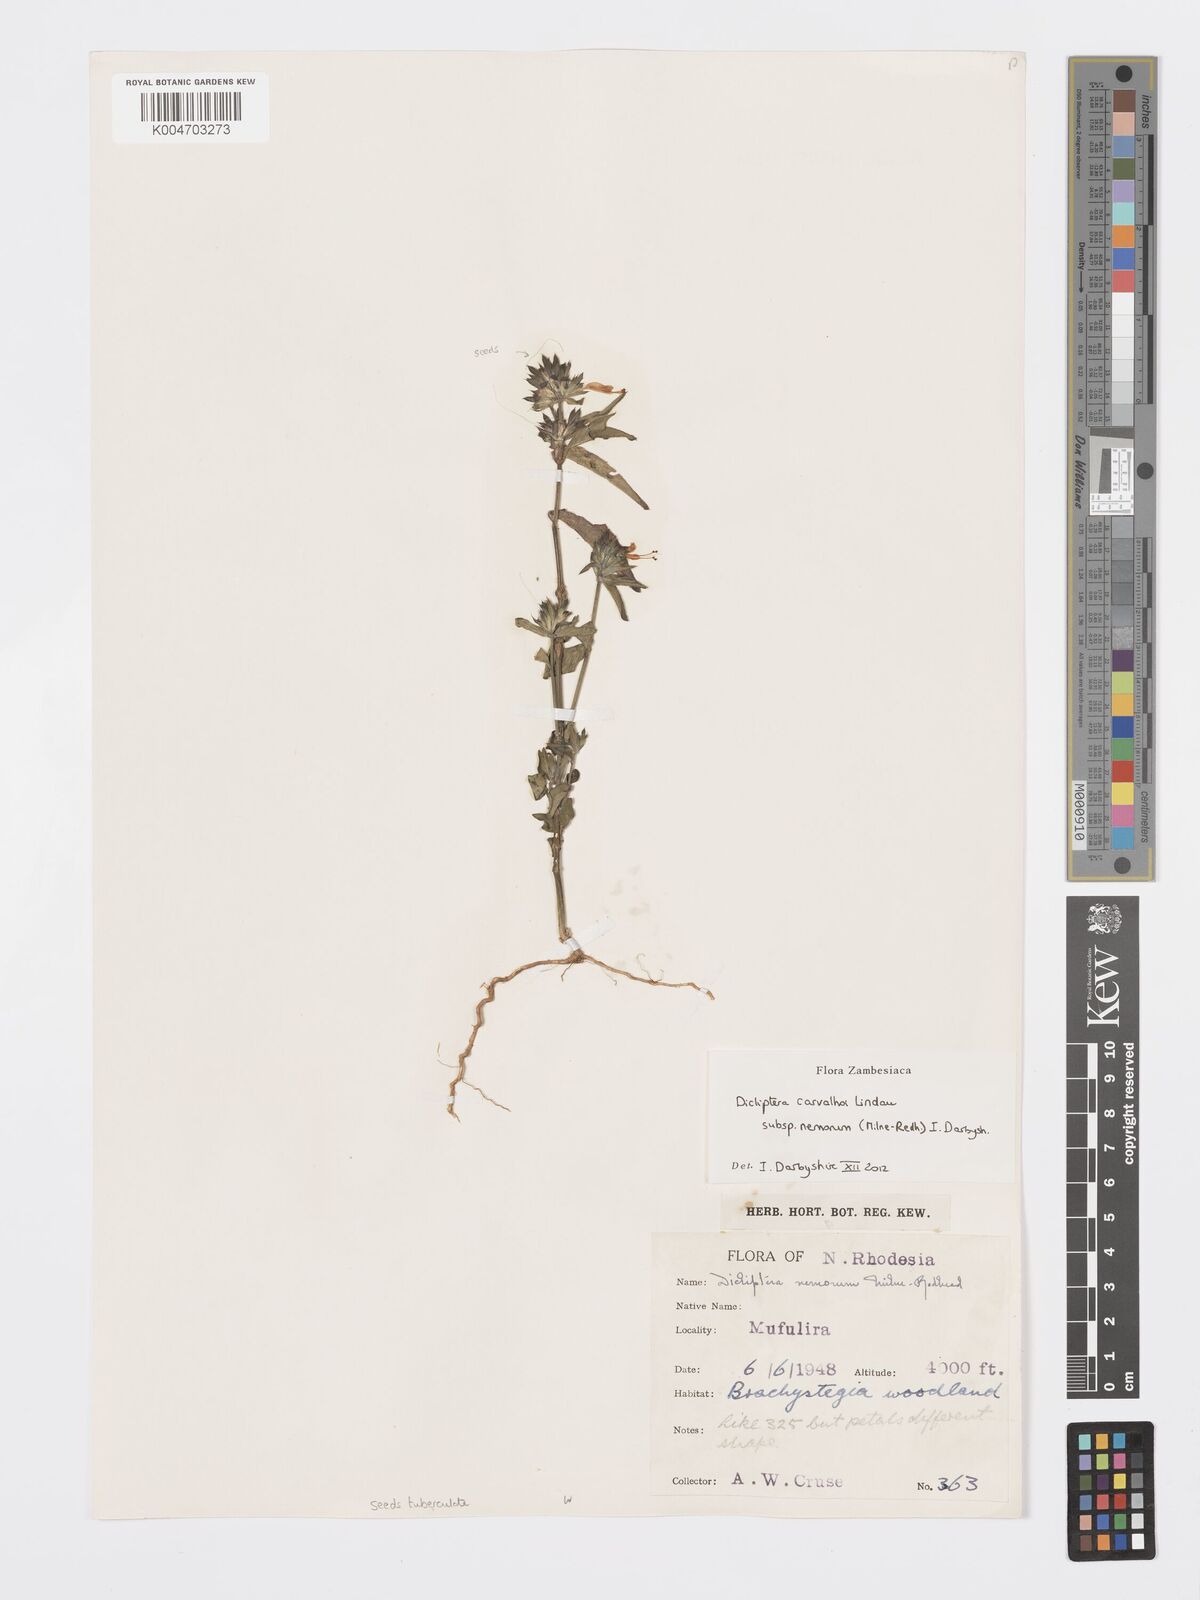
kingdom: Plantae
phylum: Tracheophyta
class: Magnoliopsida
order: Lamiales
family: Acanthaceae
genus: Dicliptera
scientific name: Dicliptera carvalhoi
